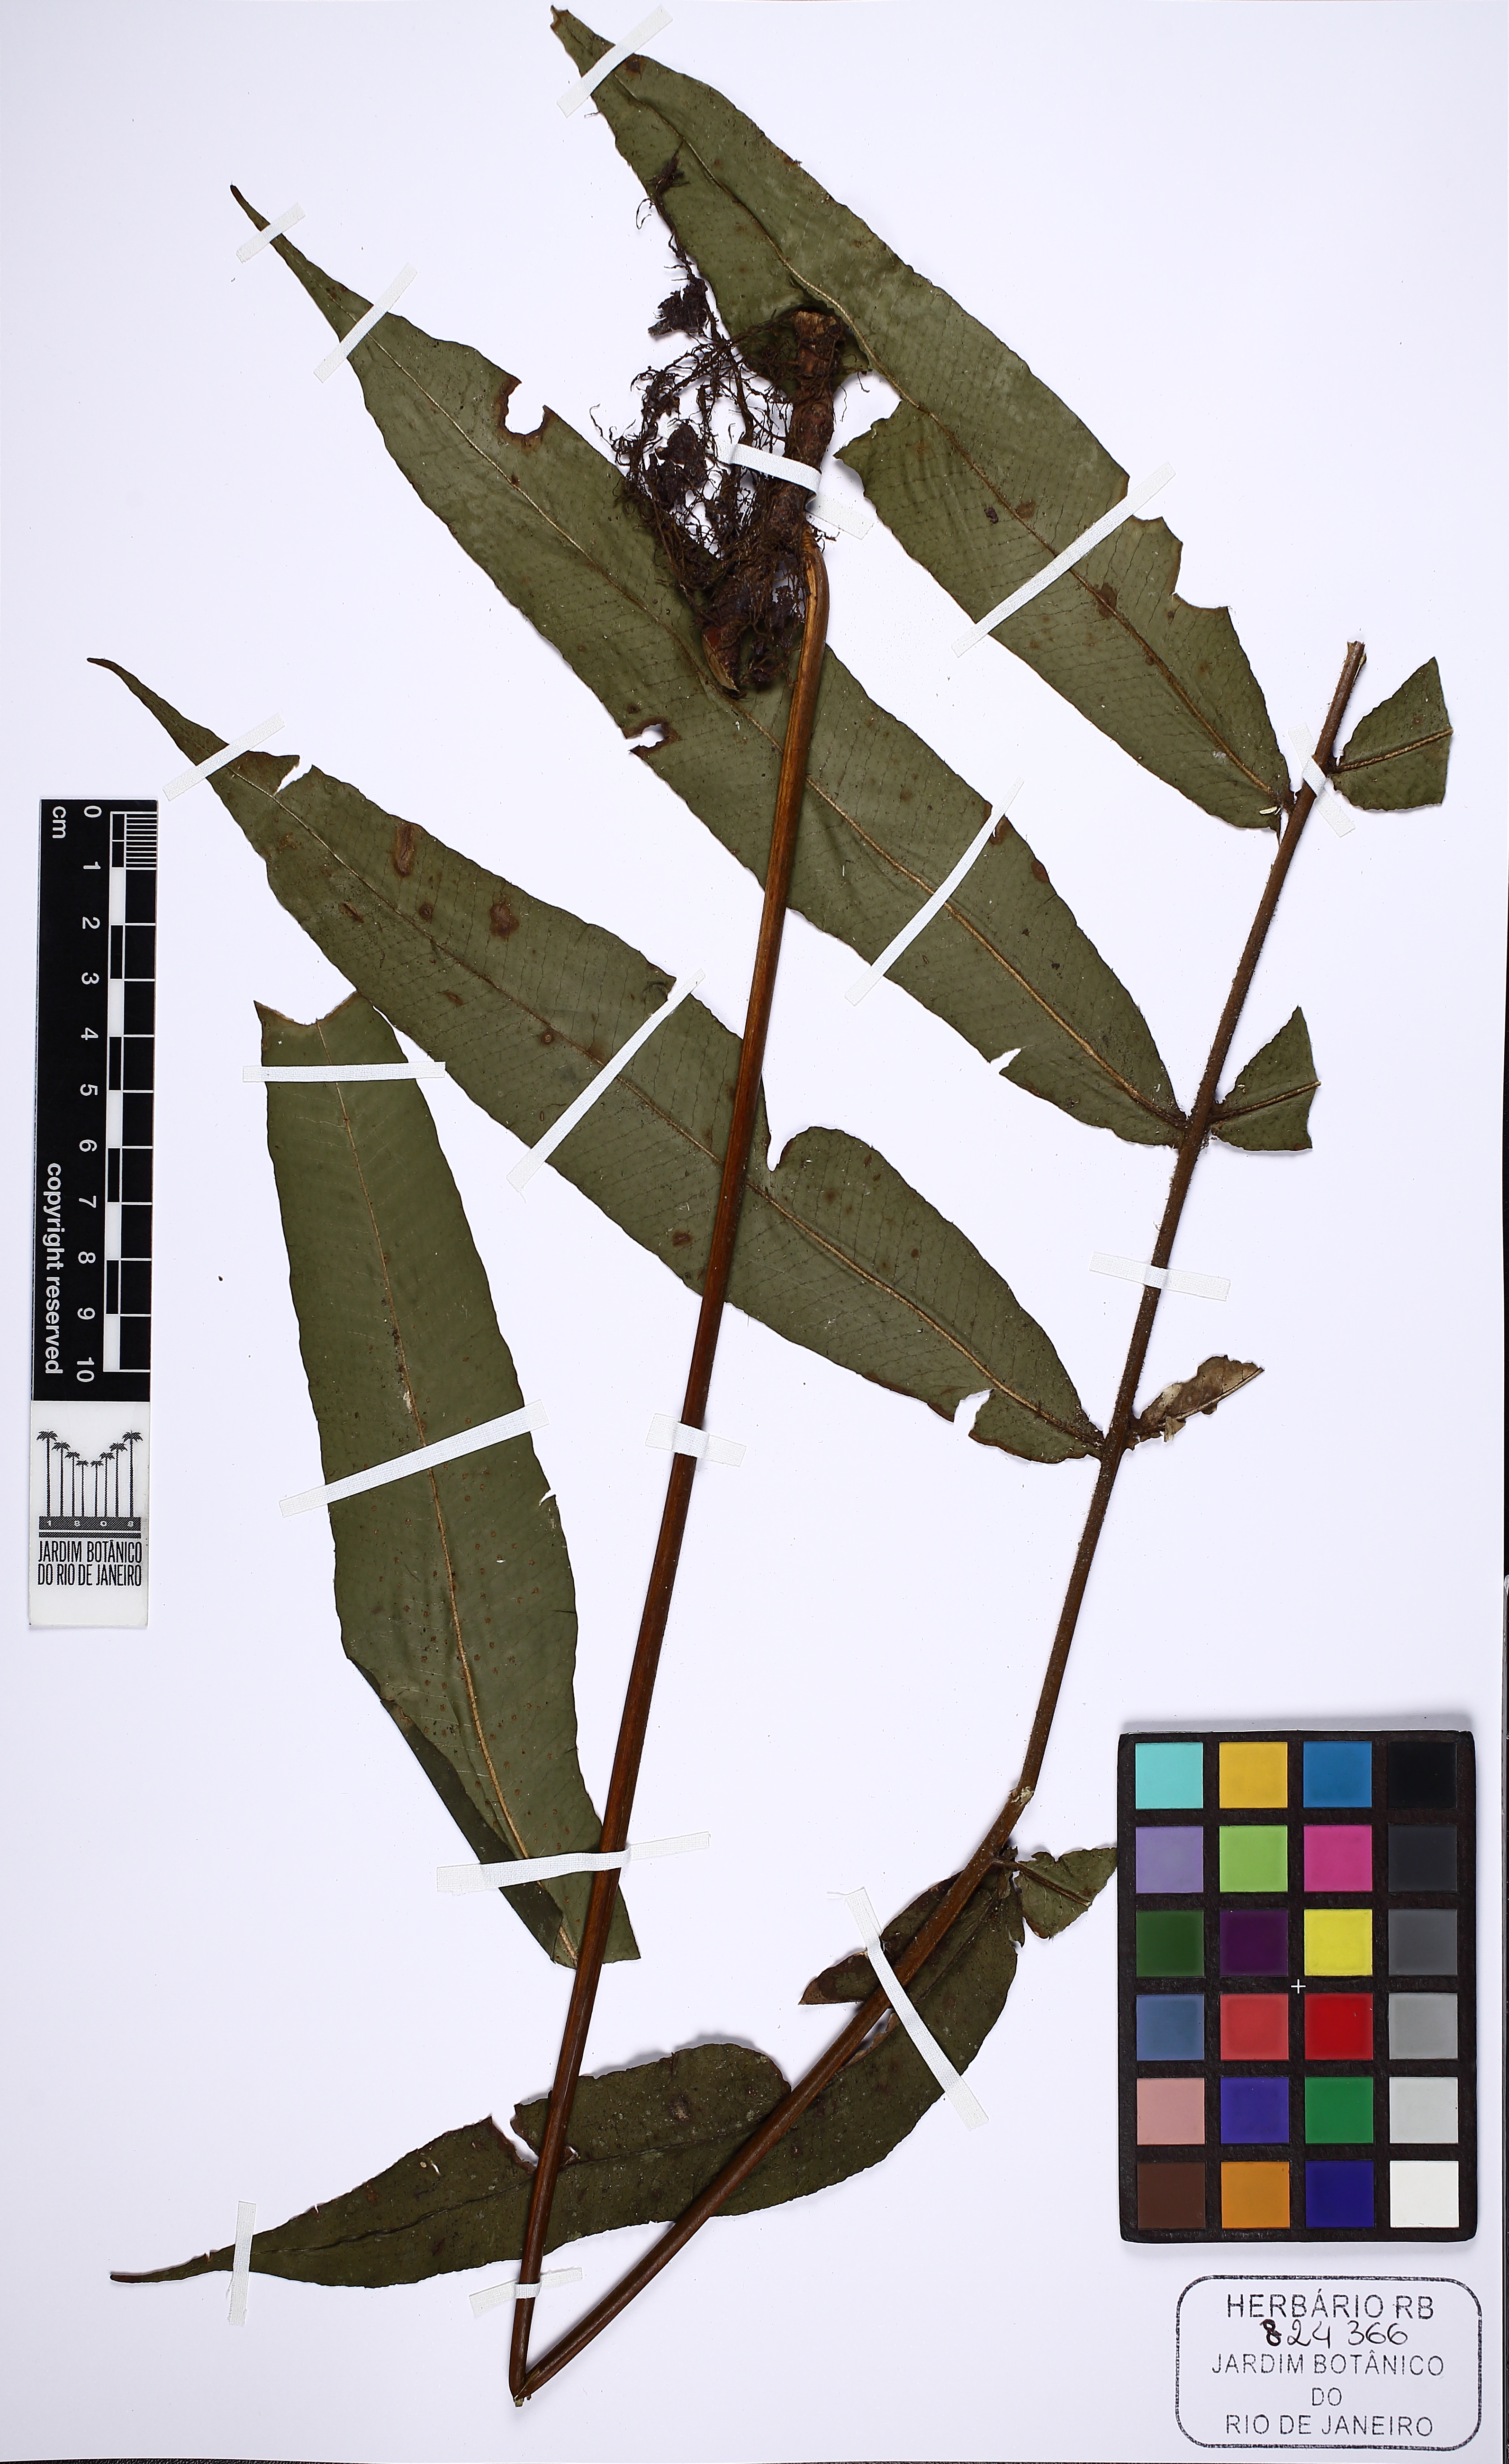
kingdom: Plantae
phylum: Tracheophyta
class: Polypodiopsida
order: Polypodiales
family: Polypodiaceae
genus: Serpocaulon
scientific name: Serpocaulon richardii
